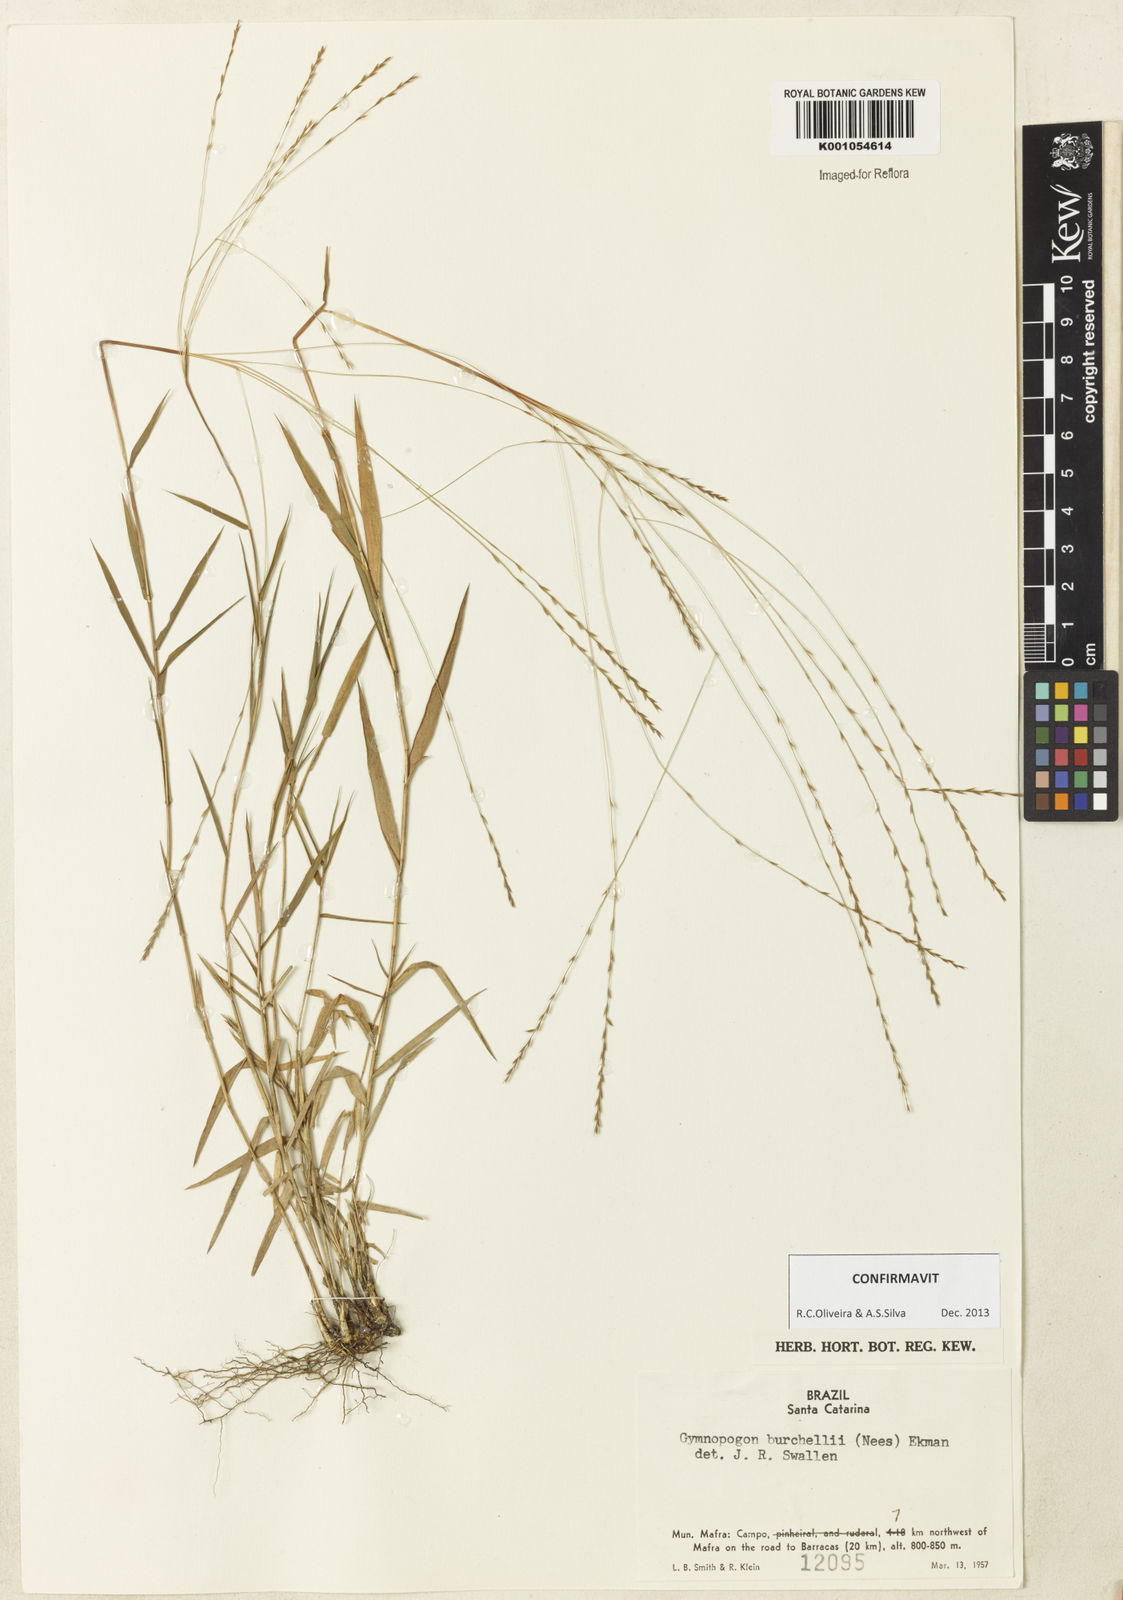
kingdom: Plantae
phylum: Tracheophyta
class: Liliopsida
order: Poales
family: Poaceae
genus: Gymnopogon
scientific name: Gymnopogon
